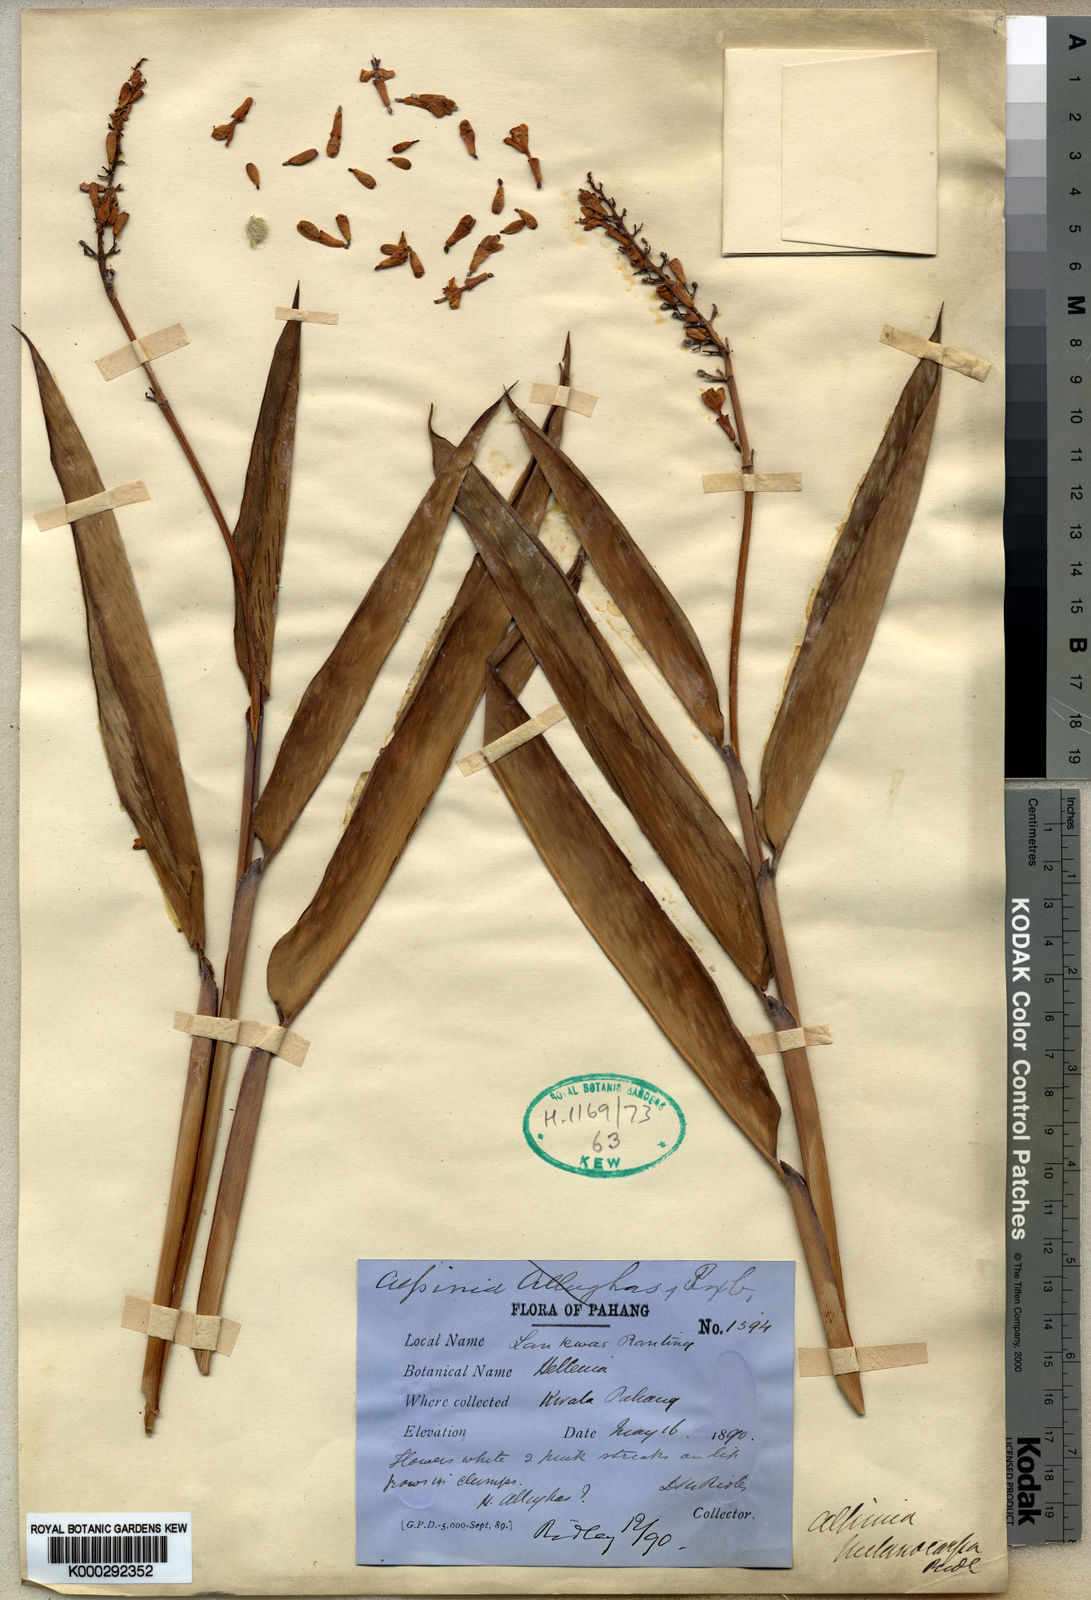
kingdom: Plantae
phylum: Tracheophyta
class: Liliopsida
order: Zingiberales
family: Zingiberaceae
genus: Alpinia
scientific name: Alpinia aquatica
